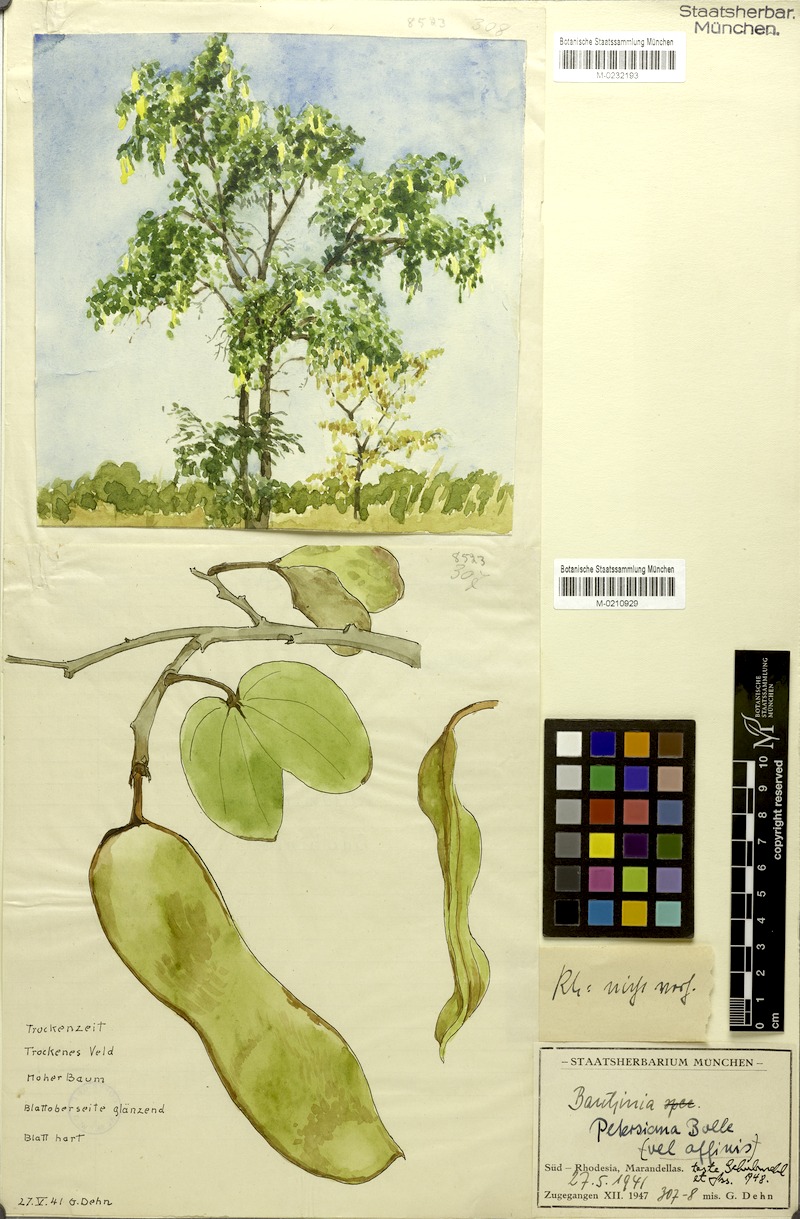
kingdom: Plantae
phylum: Tracheophyta
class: Magnoliopsida
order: Fabales
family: Fabaceae
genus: Bauhinia
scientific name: Bauhinia petersiana
